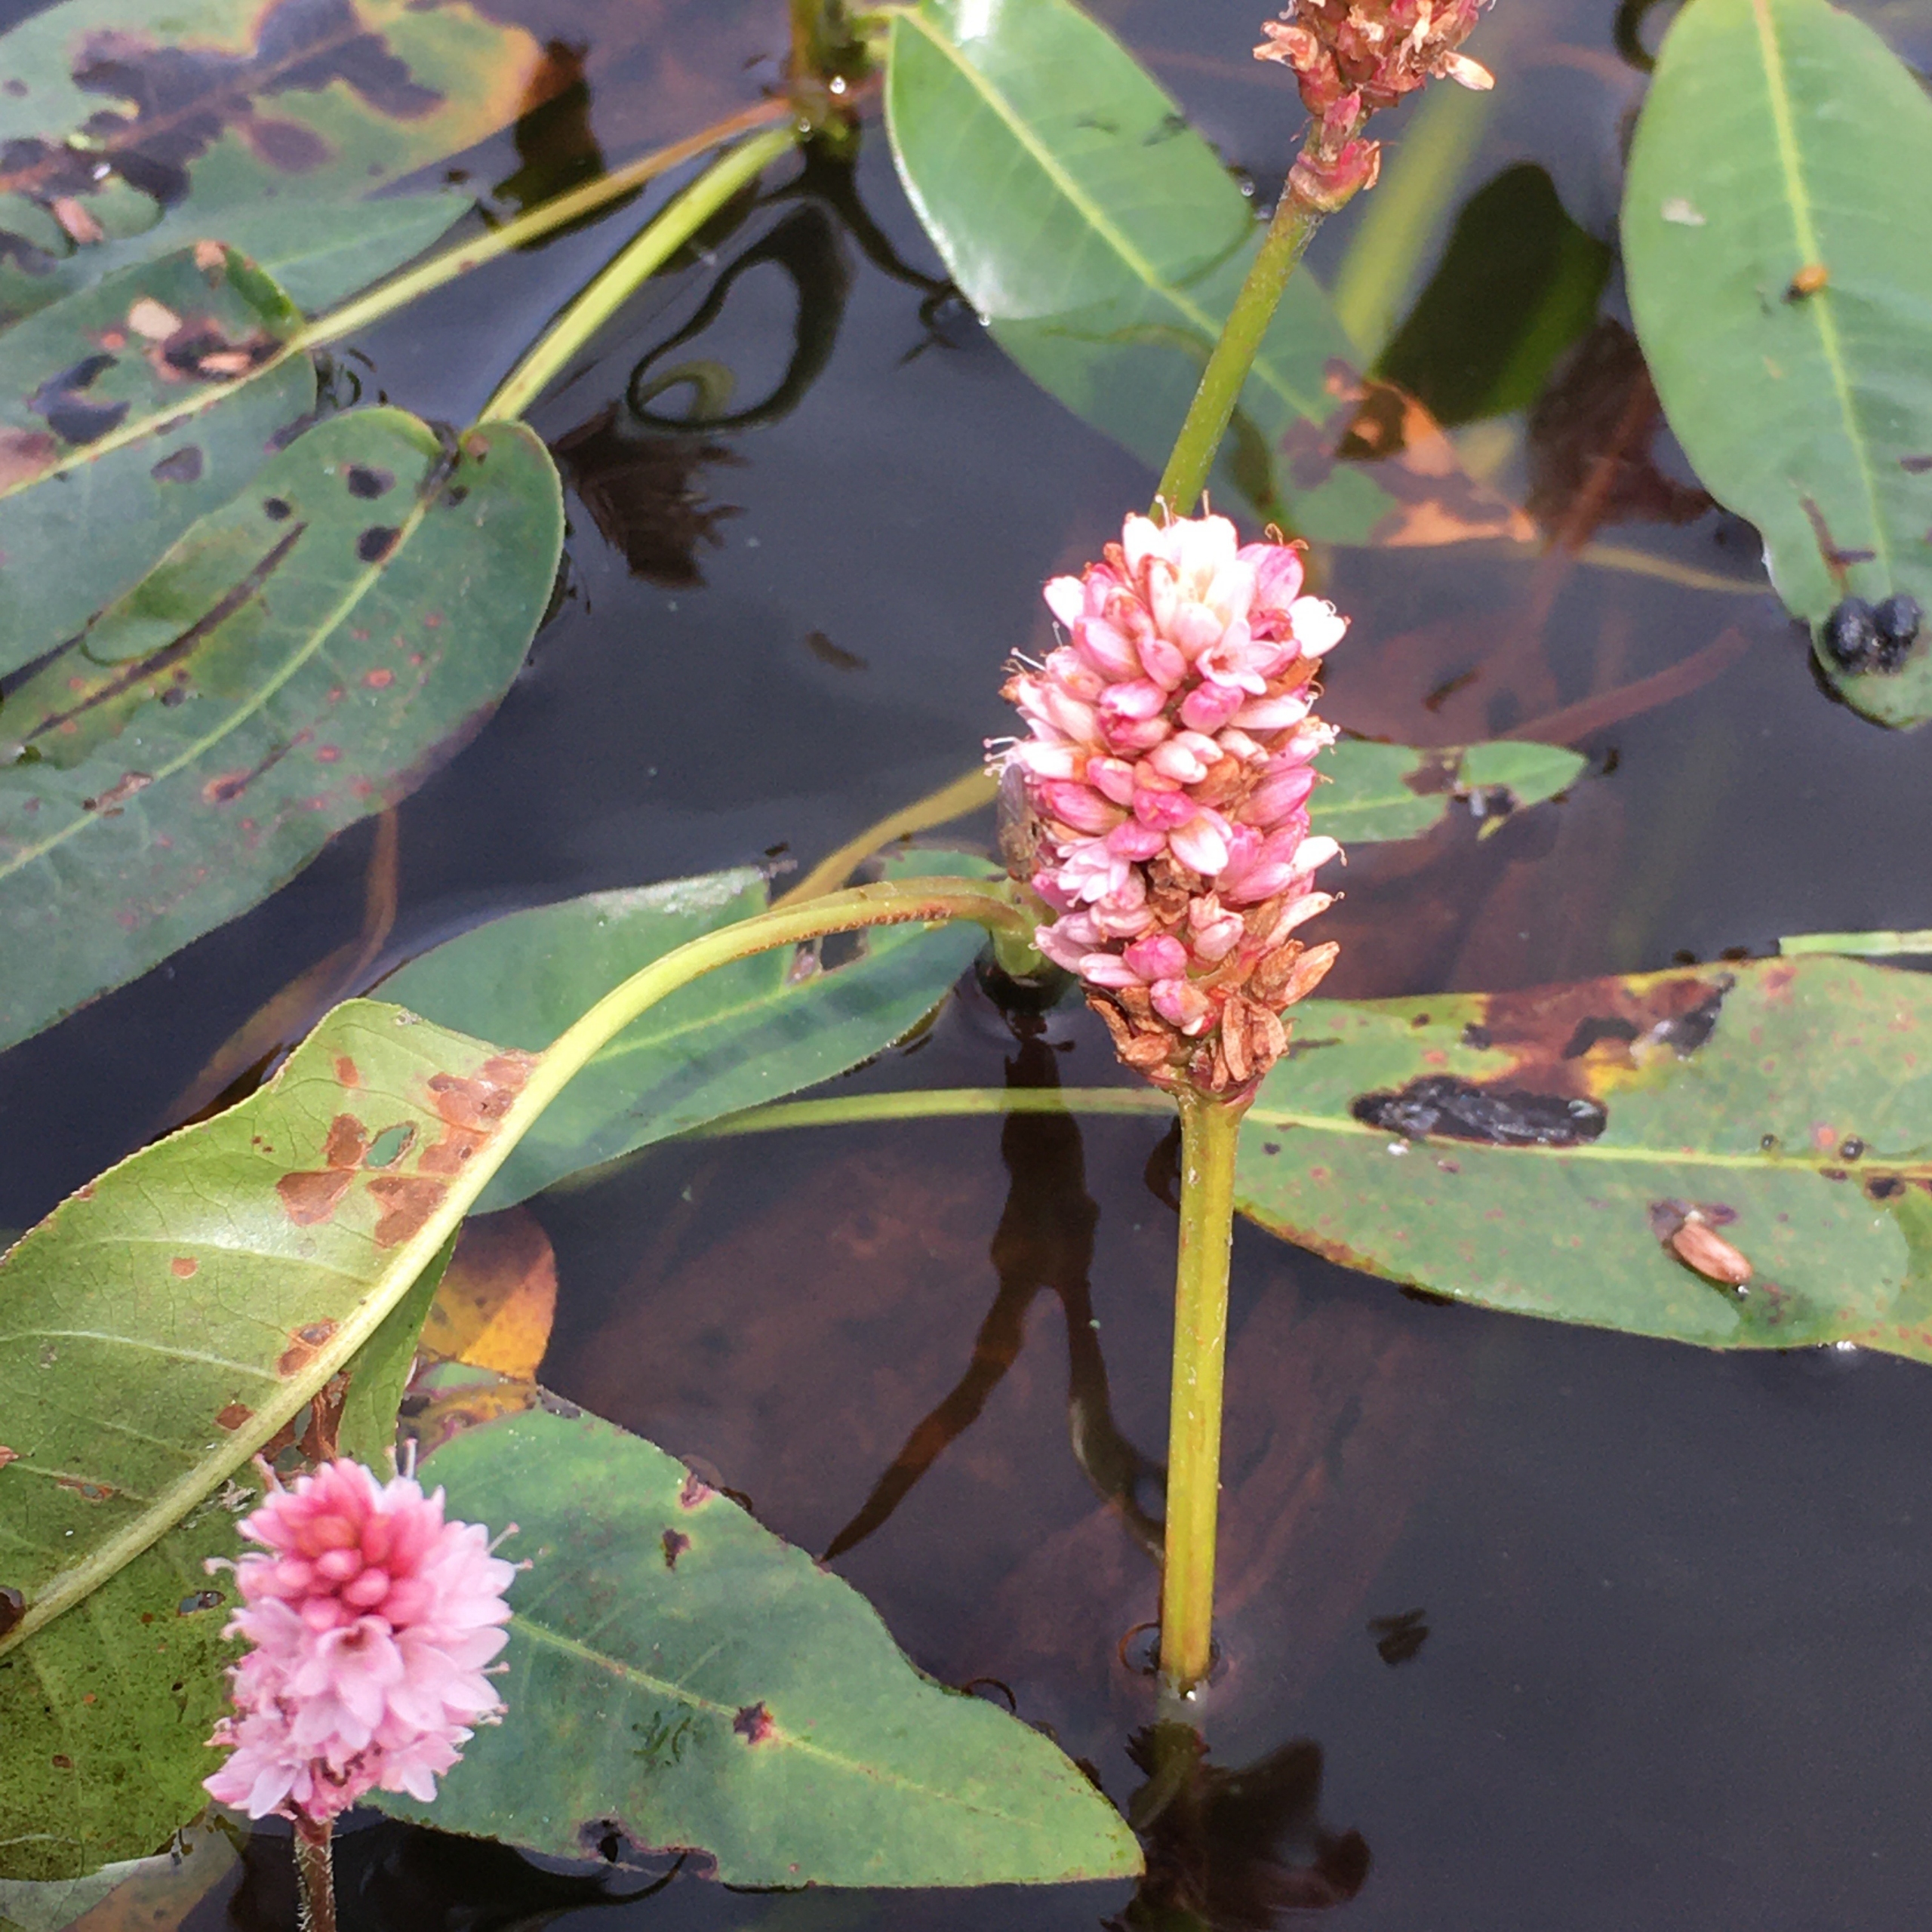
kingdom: Plantae
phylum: Tracheophyta
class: Magnoliopsida
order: Caryophyllales
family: Polygonaceae
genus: Persicaria
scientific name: Persicaria amphibia
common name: Vand-pileurt
